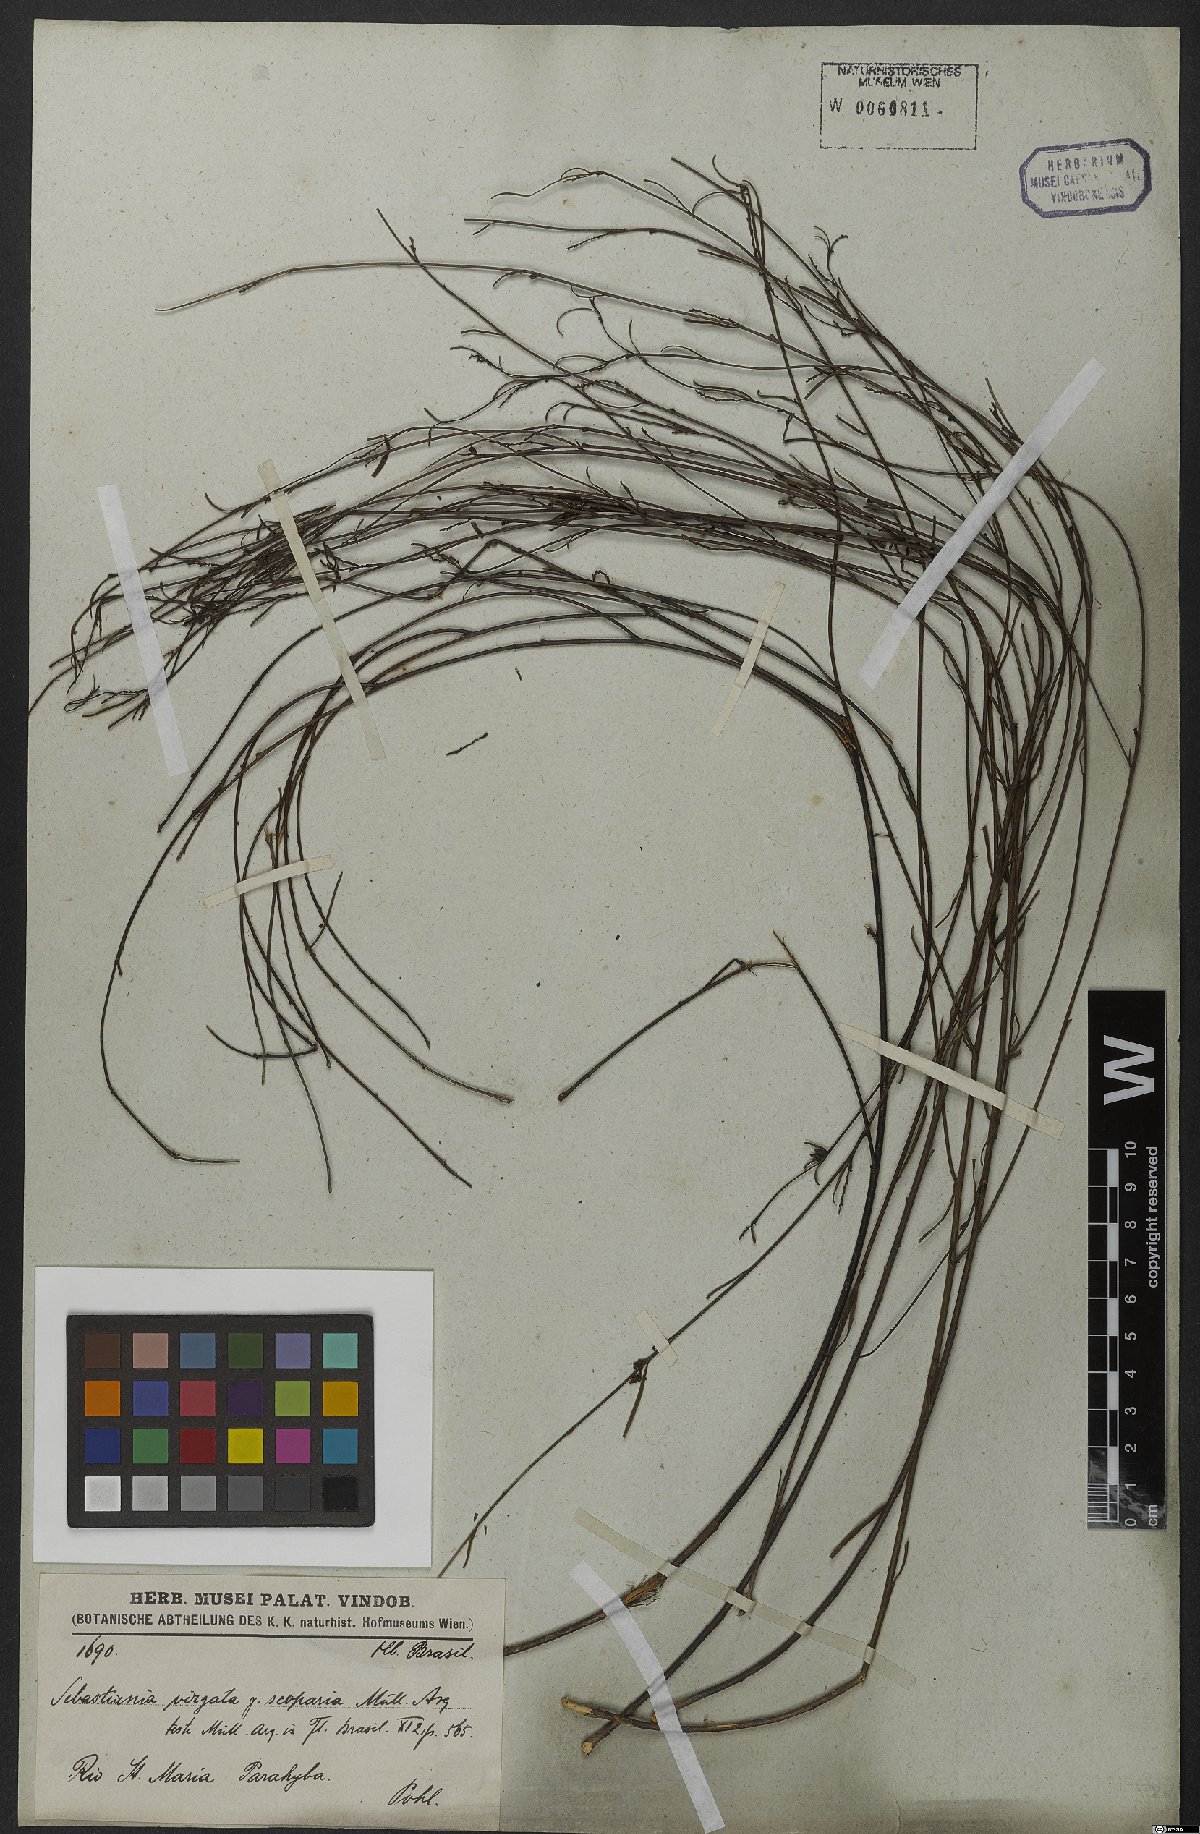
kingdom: Plantae
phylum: Tracheophyta
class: Magnoliopsida
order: Malpighiales
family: Euphorbiaceae
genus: Microstachys
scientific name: Microstachys bidentata
